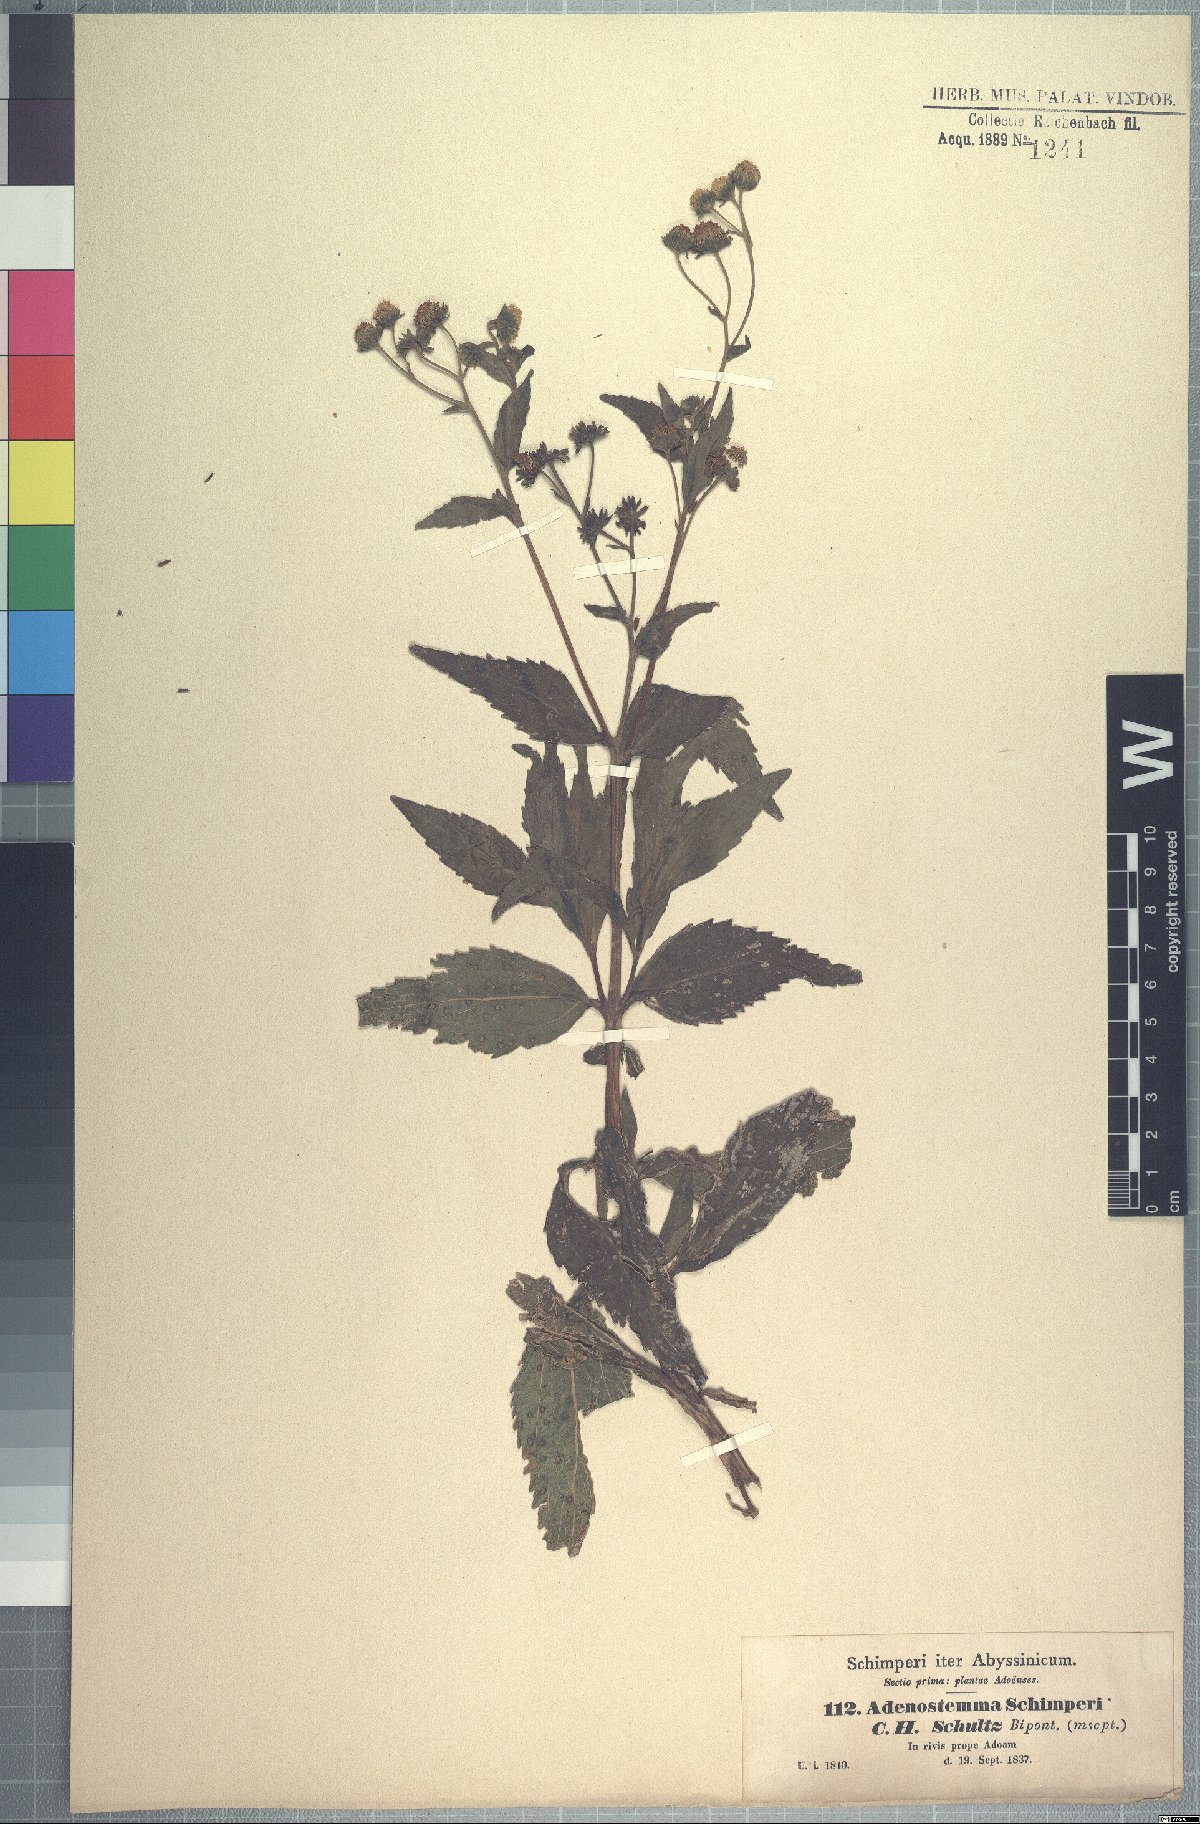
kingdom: Plantae
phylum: Tracheophyta
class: Magnoliopsida
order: Asterales
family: Asteraceae
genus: Adenostemma
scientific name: Adenostemma caffrum
